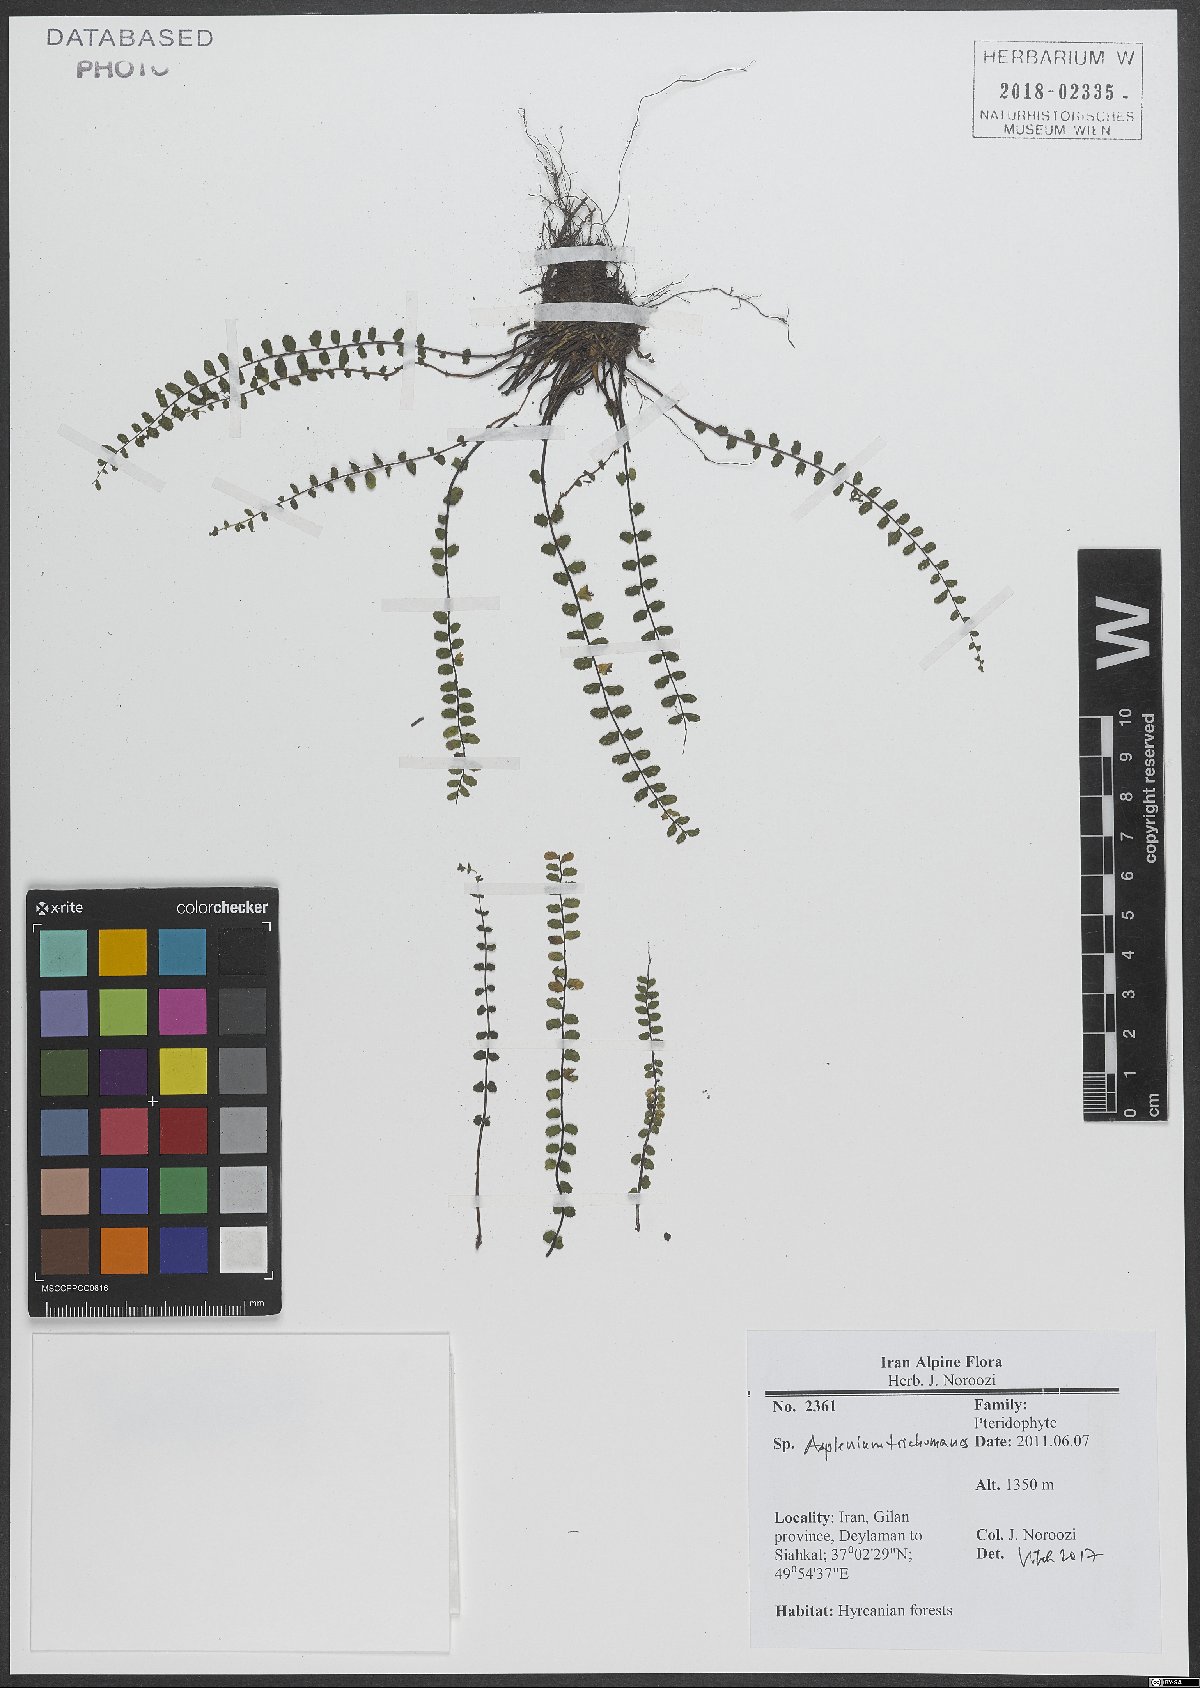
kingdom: Plantae
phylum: Tracheophyta
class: Polypodiopsida
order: Polypodiales
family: Aspleniaceae
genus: Asplenium
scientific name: Asplenium trichomanes
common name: Maidenhair spleenwort
